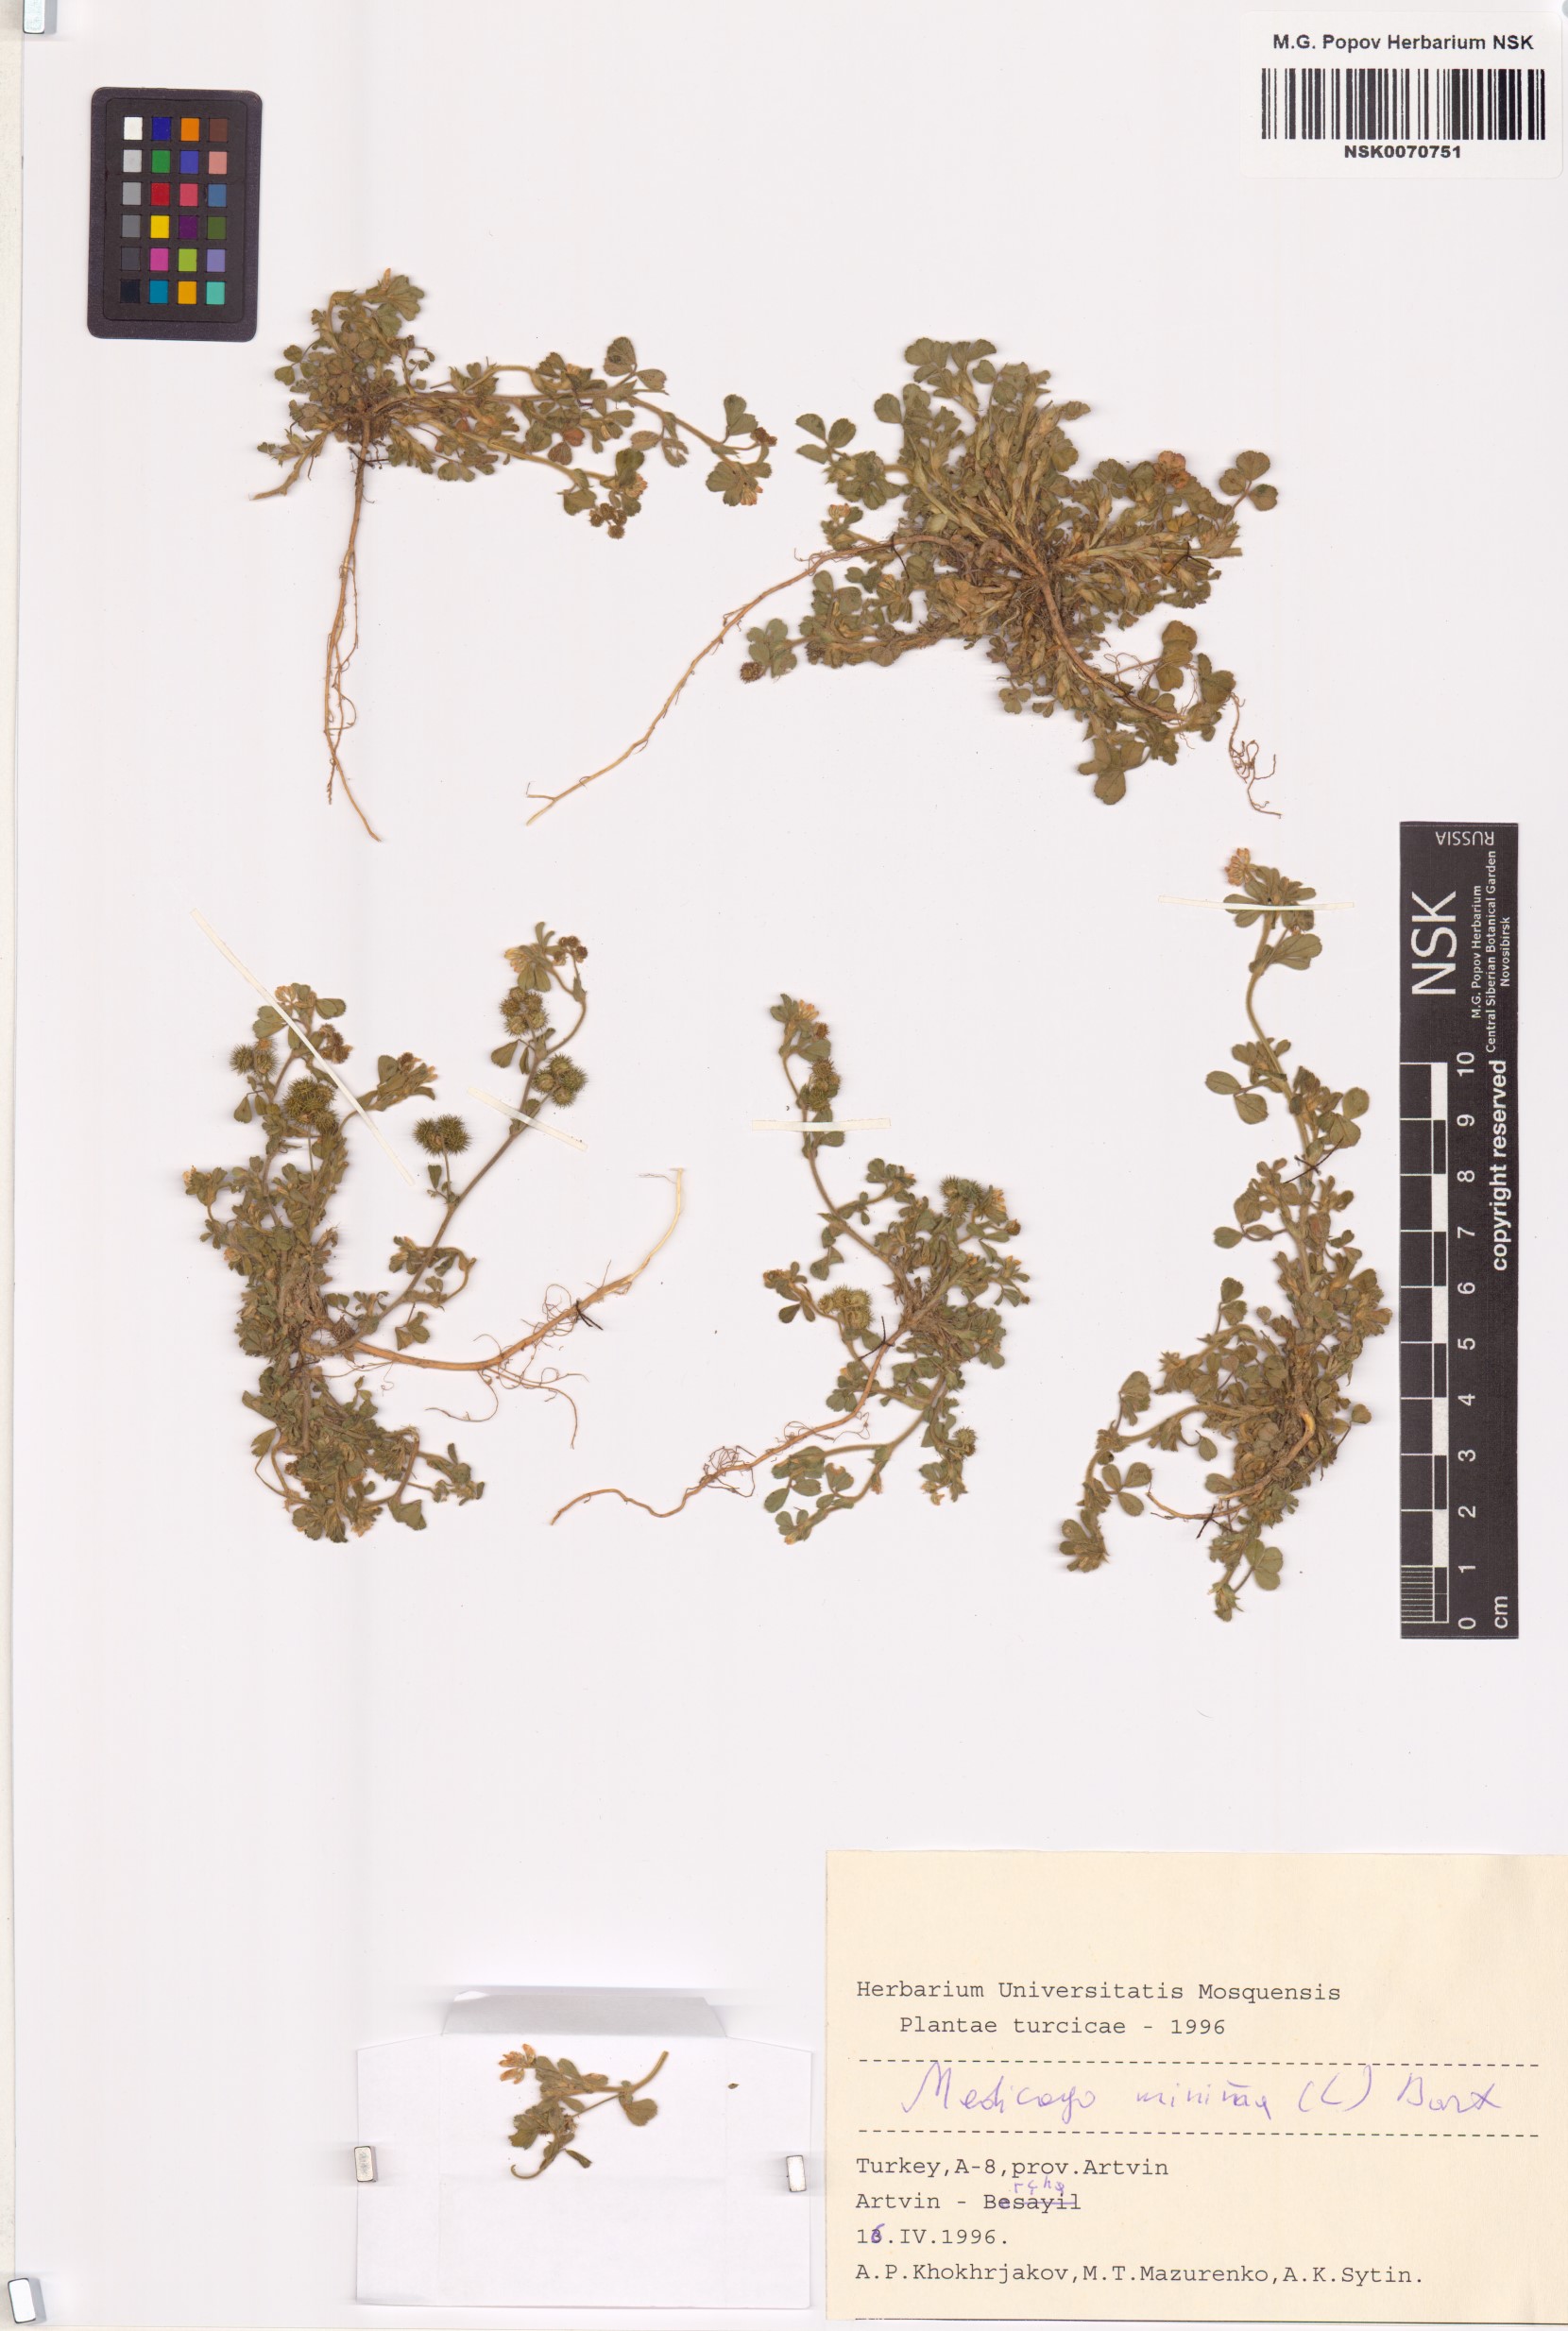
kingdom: Plantae
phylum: Tracheophyta
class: Magnoliopsida
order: Fabales
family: Fabaceae
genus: Medicago
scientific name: Medicago minima
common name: Little bur-clover
